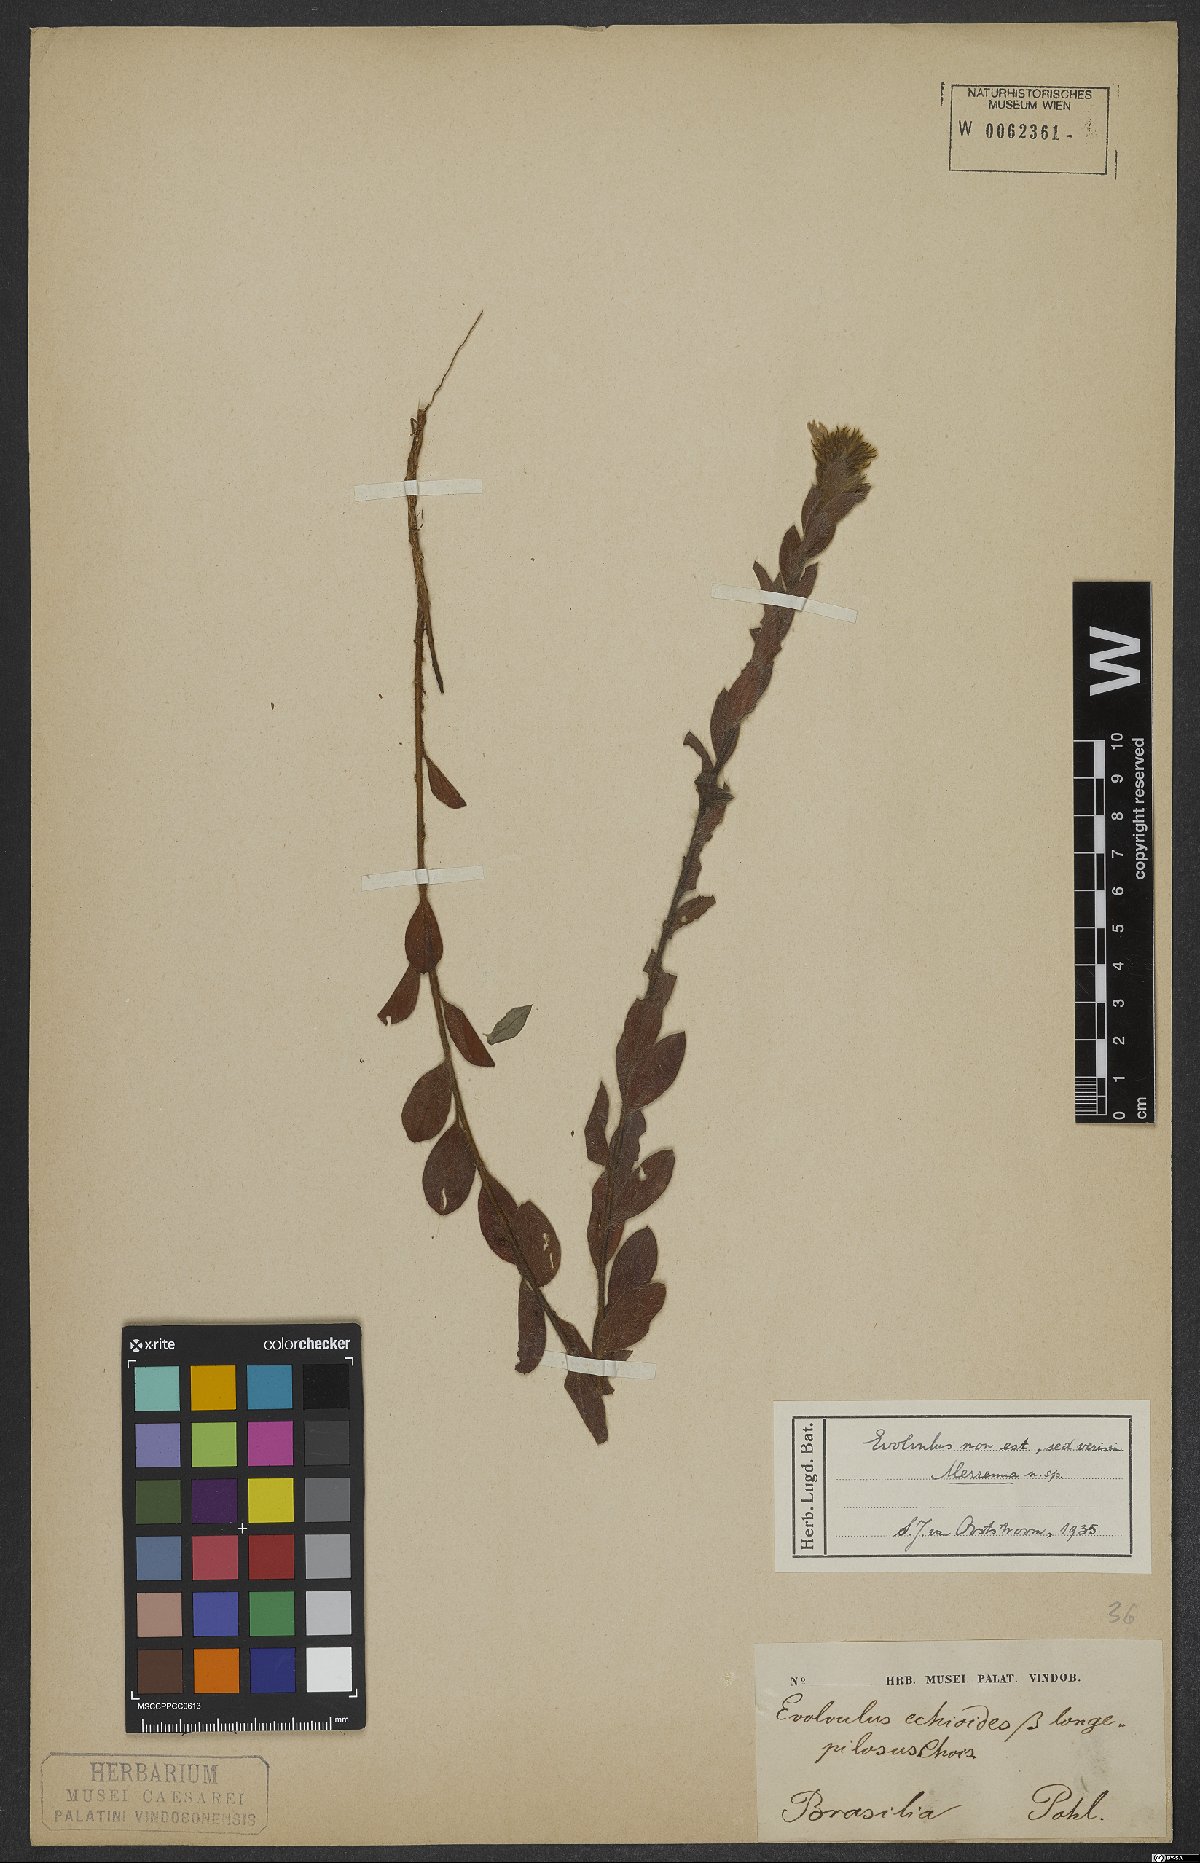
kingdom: Plantae
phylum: Tracheophyta
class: Magnoliopsida
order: Solanales
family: Convolvulaceae
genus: Merremia
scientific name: Merremia
